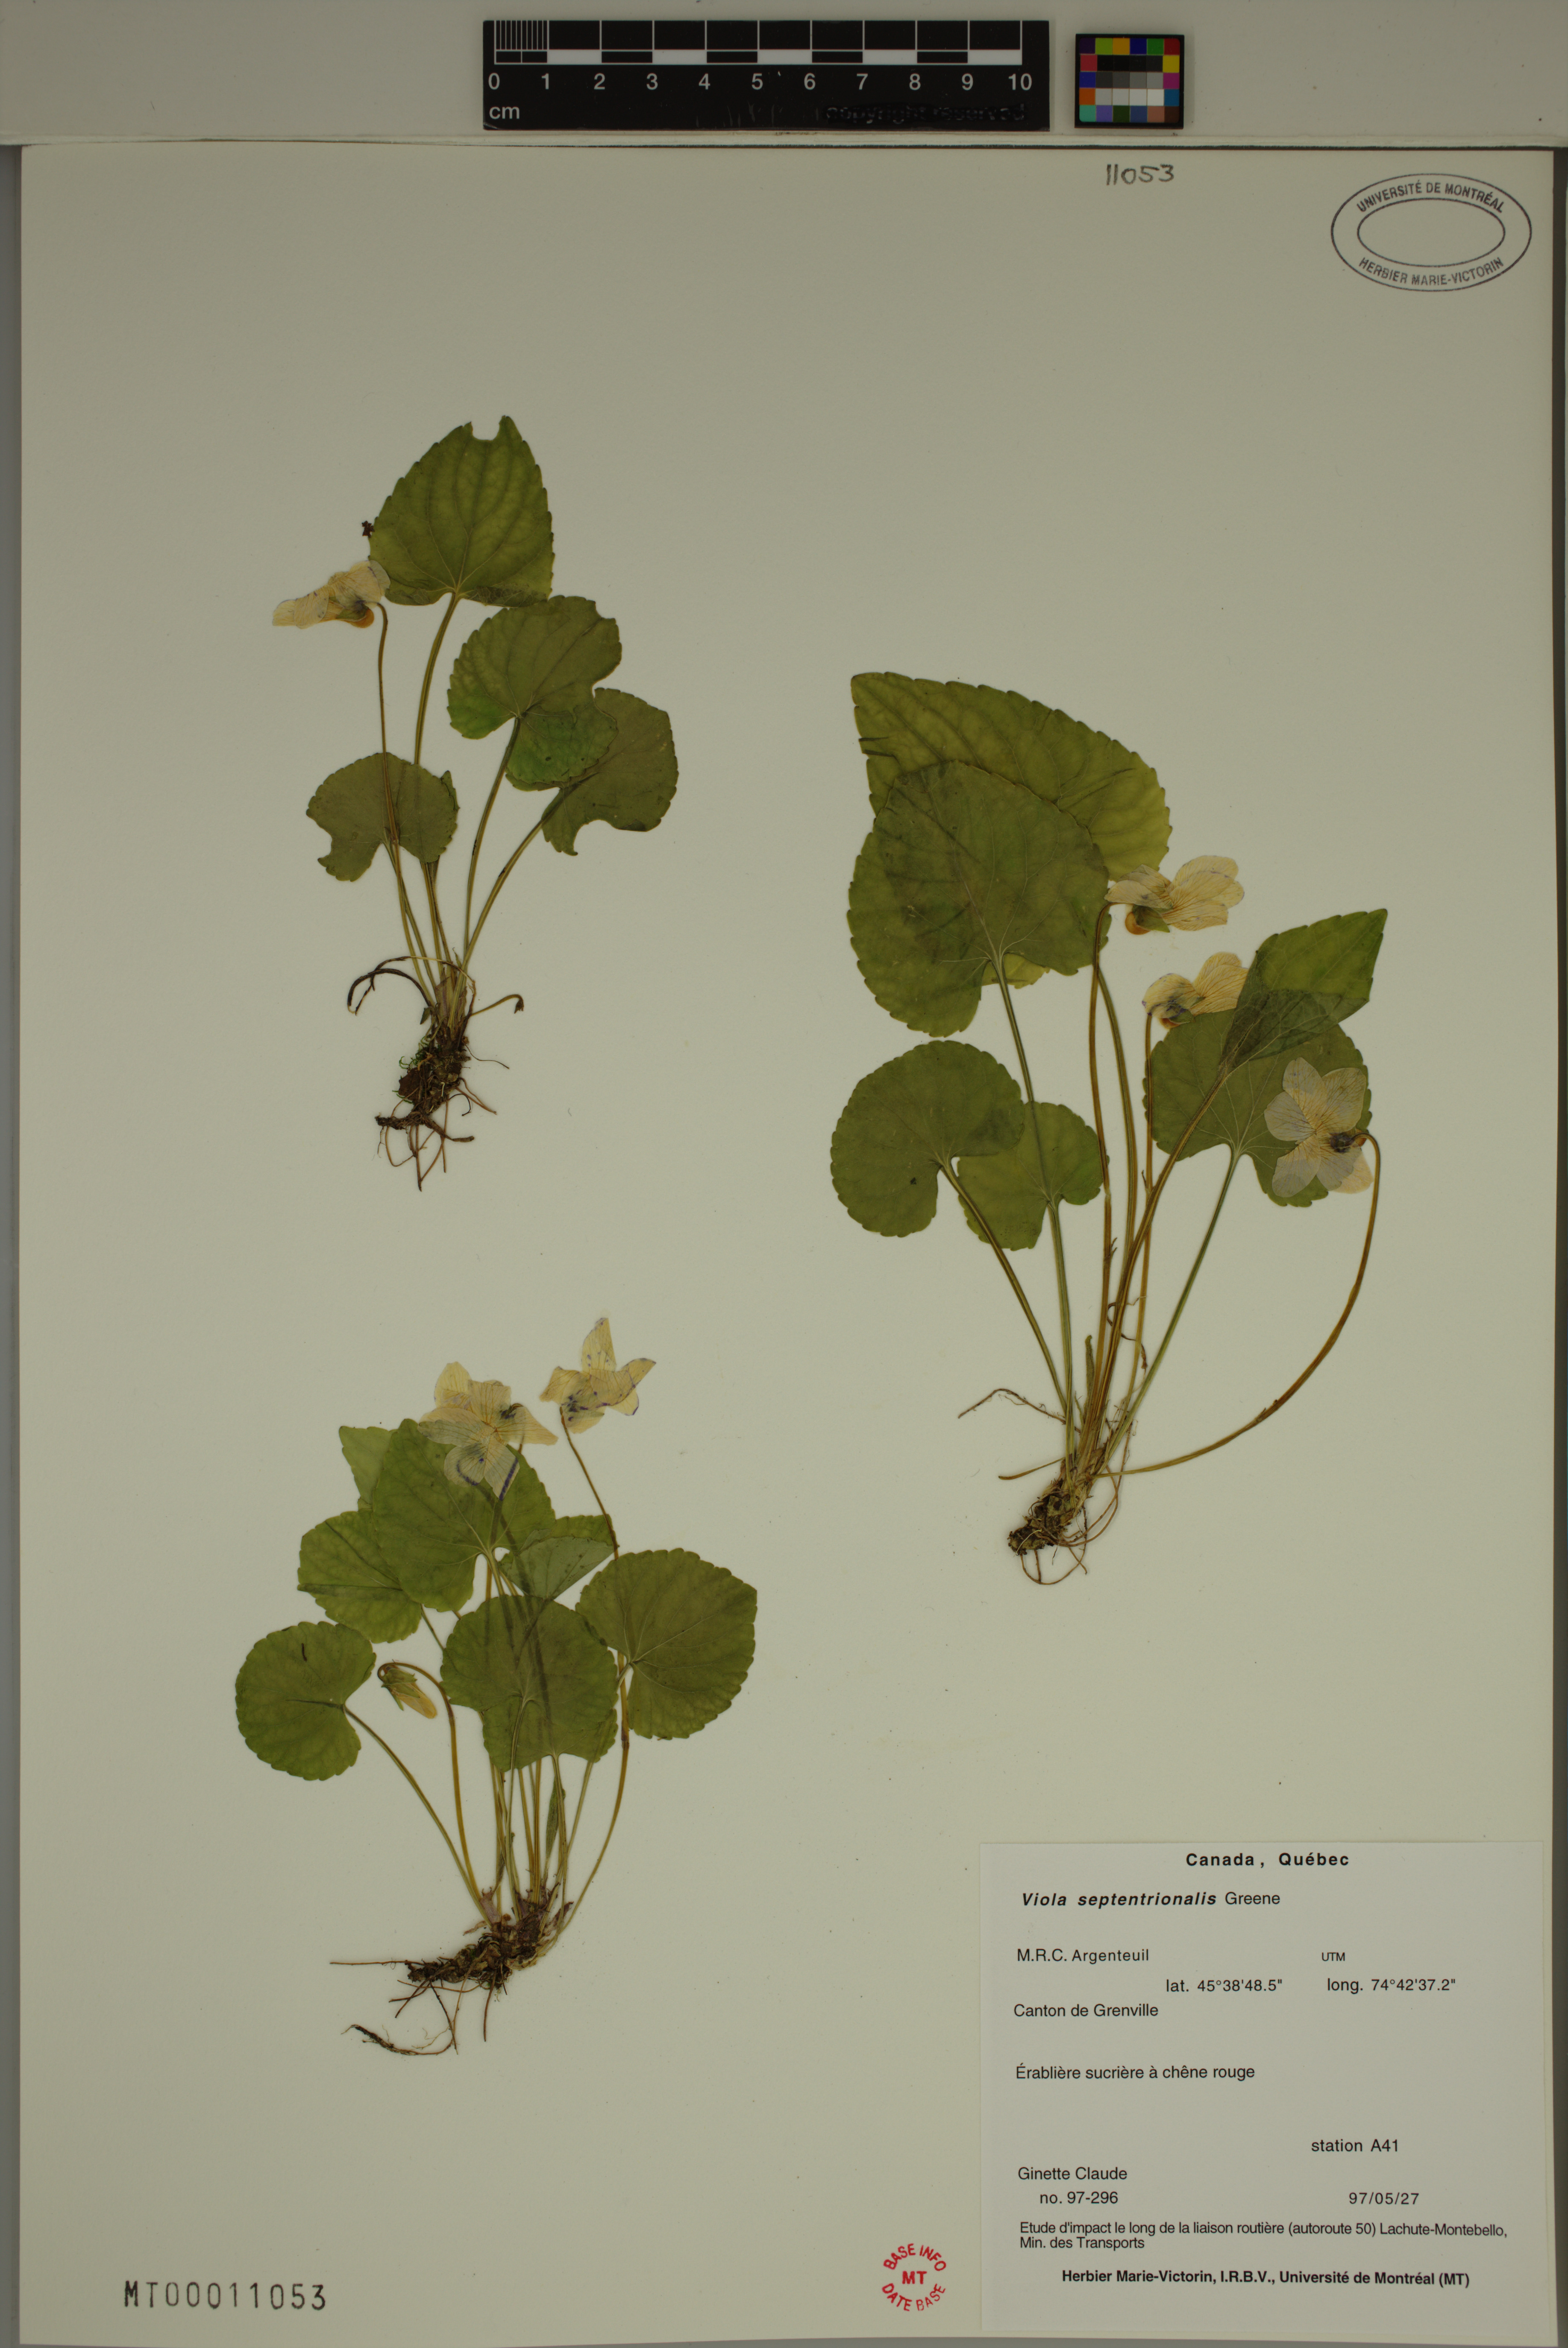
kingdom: Plantae
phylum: Tracheophyta
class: Magnoliopsida
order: Malpighiales
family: Violaceae
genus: Viola
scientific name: Viola sororia
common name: Dooryard violet
